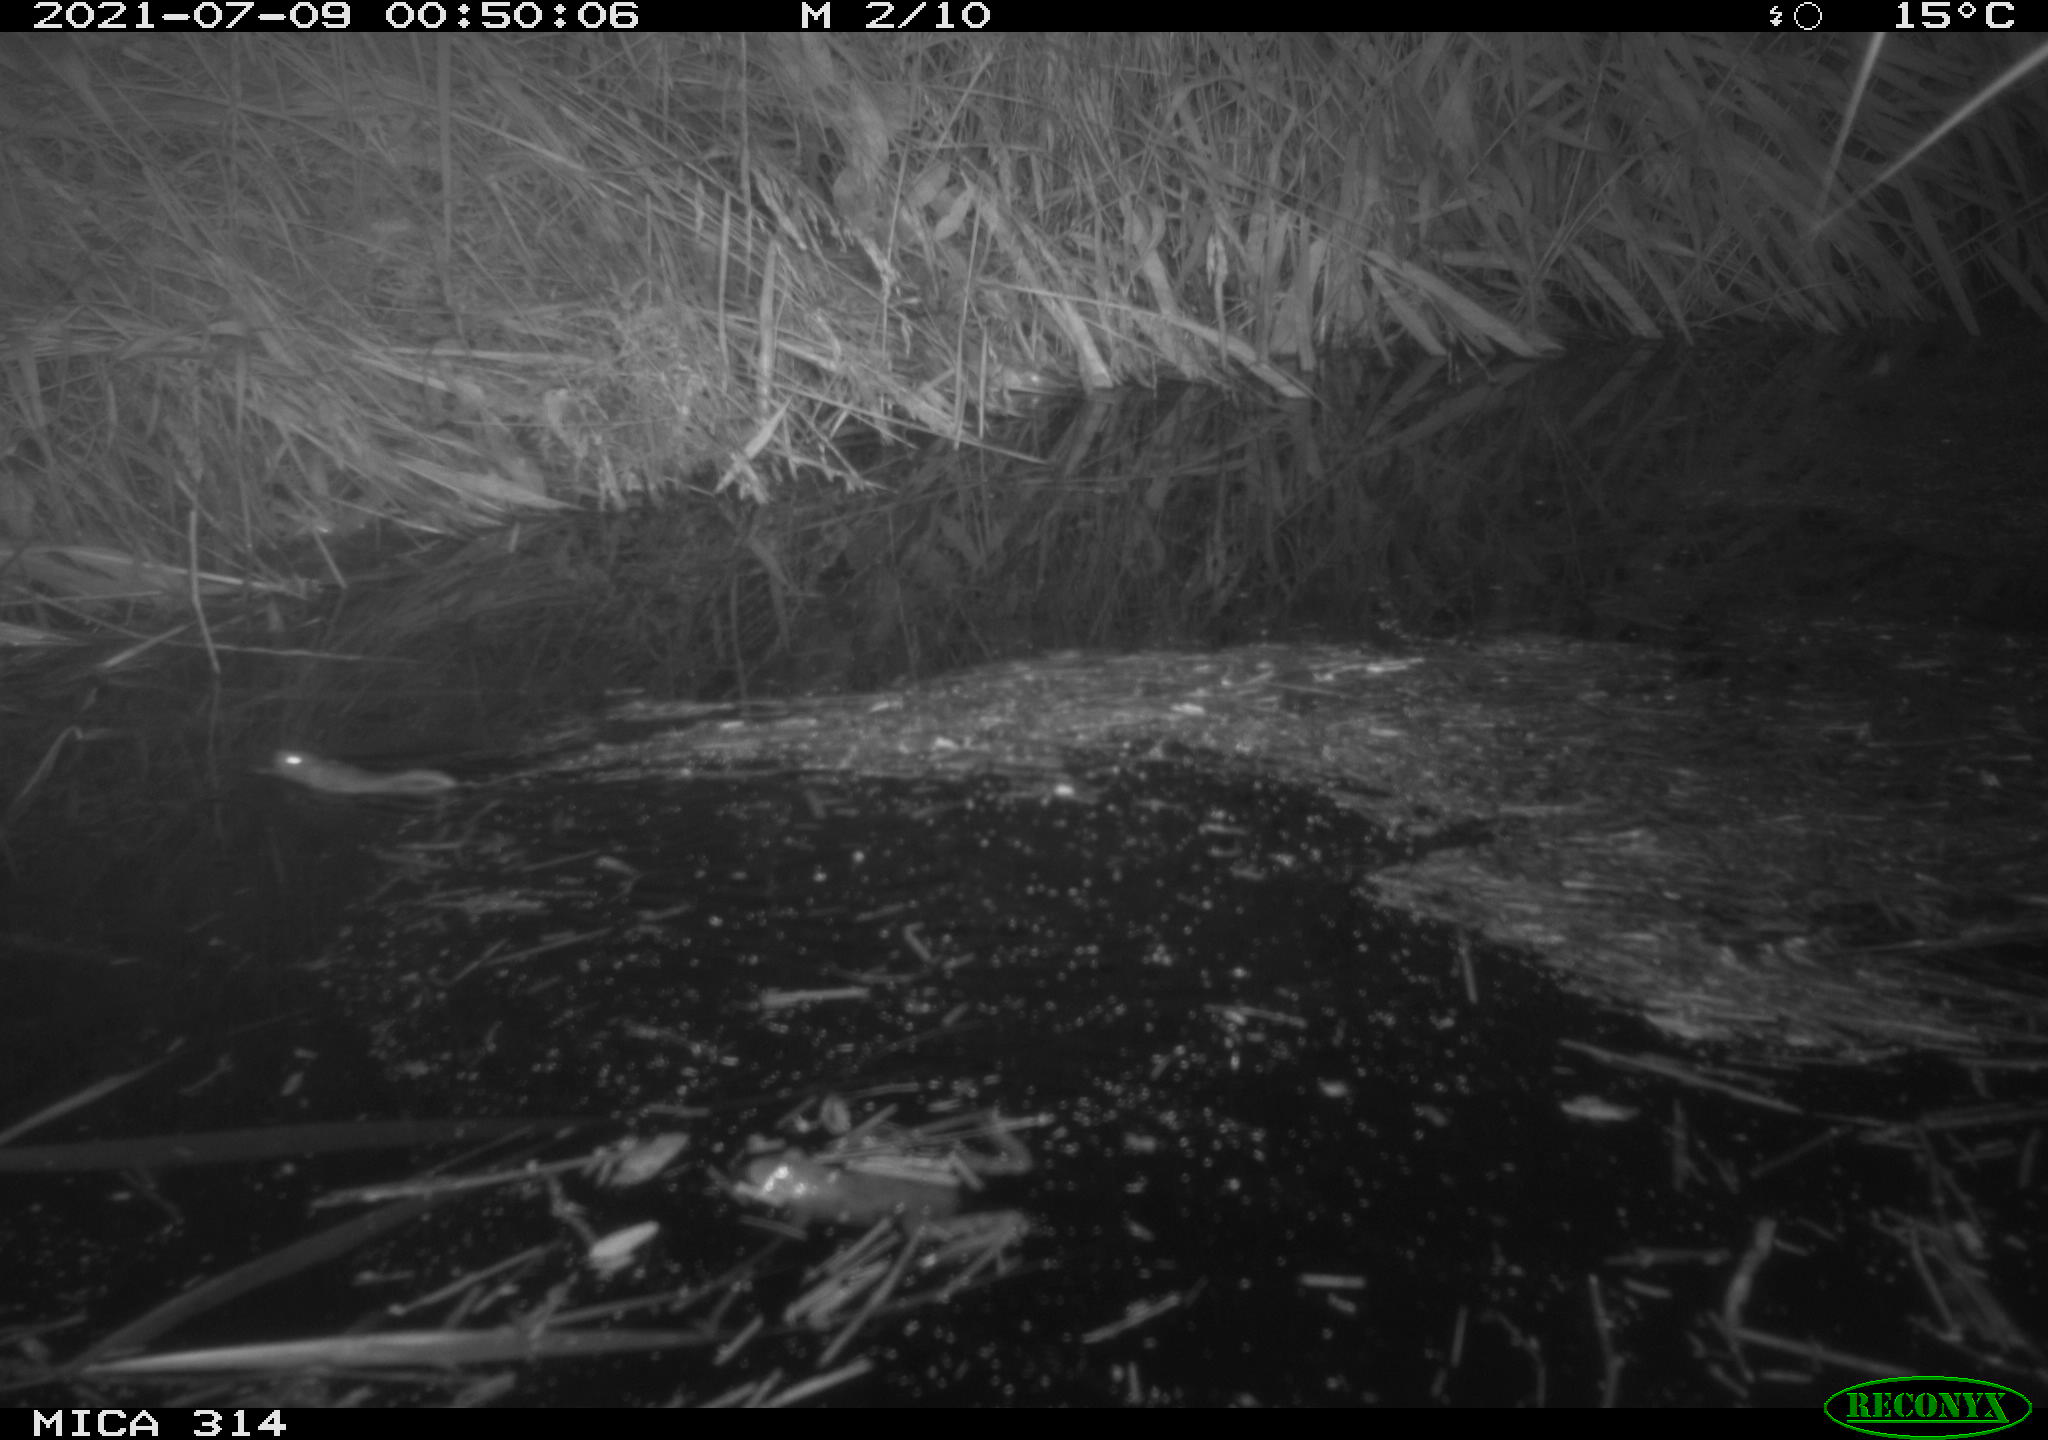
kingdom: Animalia
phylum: Chordata
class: Mammalia
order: Rodentia
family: Muridae
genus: Rattus
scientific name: Rattus norvegicus
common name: Brown rat
